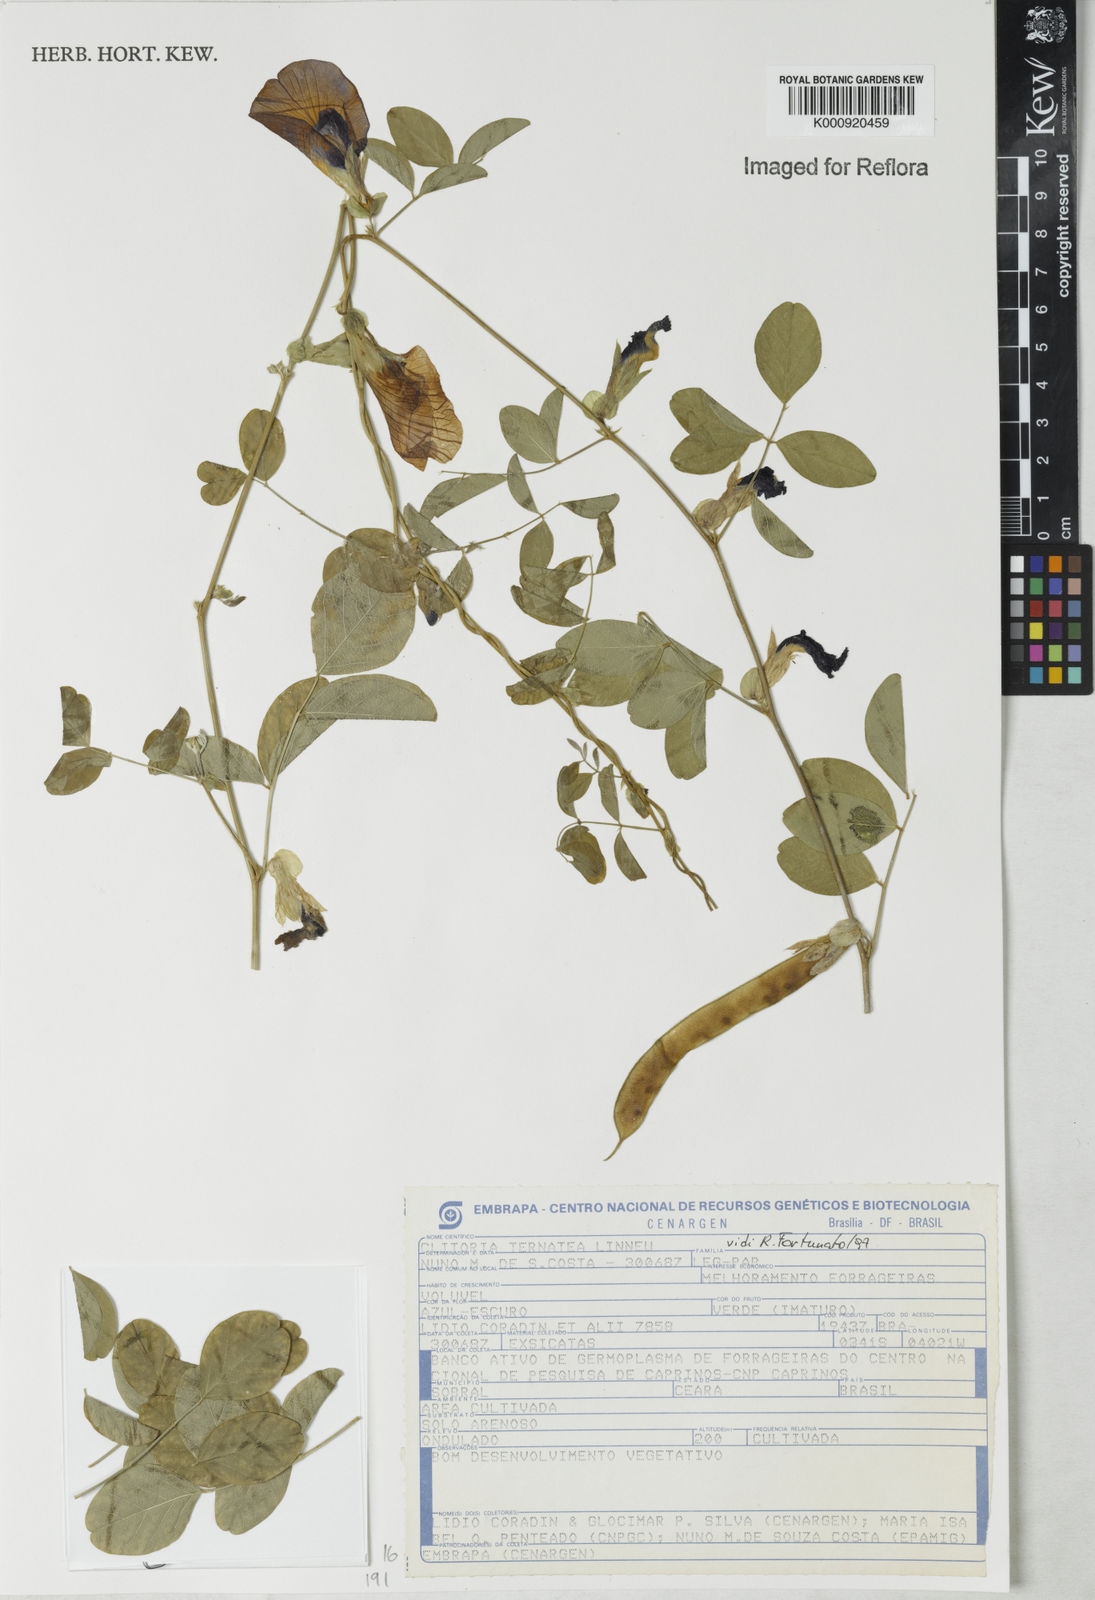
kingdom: Plantae
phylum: Tracheophyta
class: Magnoliopsida
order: Fabales
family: Fabaceae
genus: Clitoria
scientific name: Clitoria ternatea
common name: Asian pigeonwings
